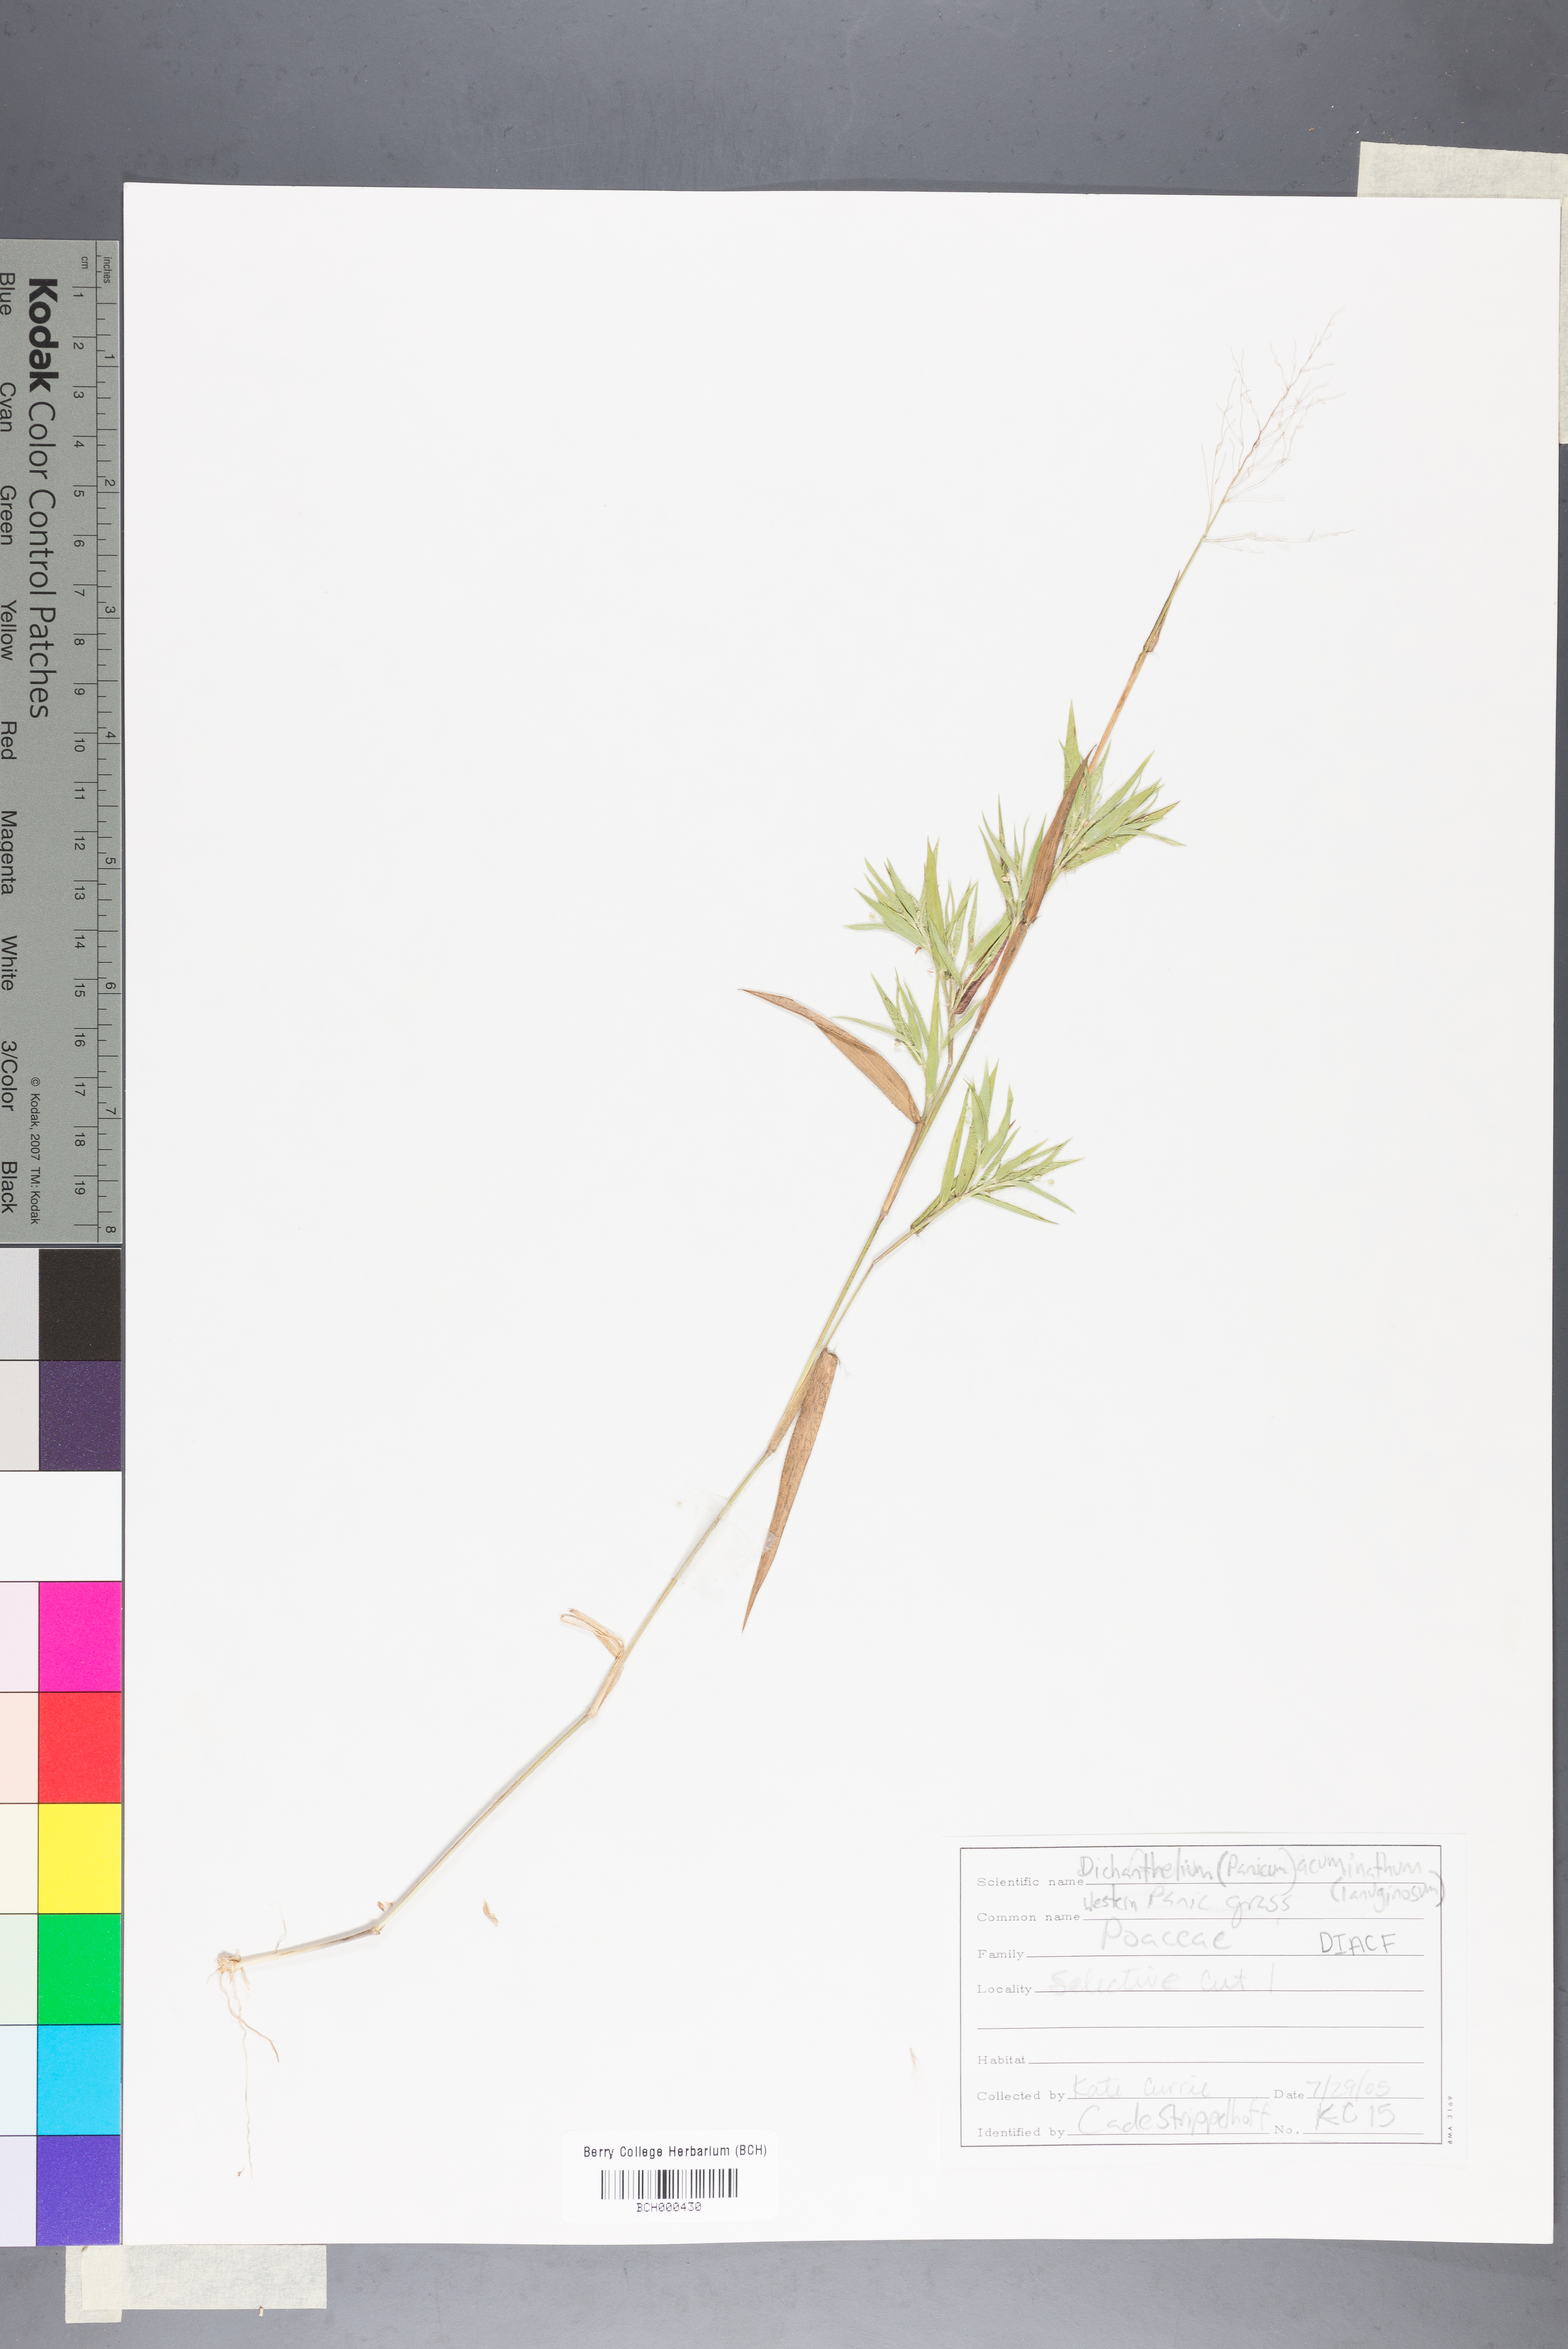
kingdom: Plantae
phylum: Tracheophyta
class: Liliopsida
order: Poales
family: Poaceae
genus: Dichanthelium
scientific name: Dichanthelium lanuginosum
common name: Woolly panicgrass
